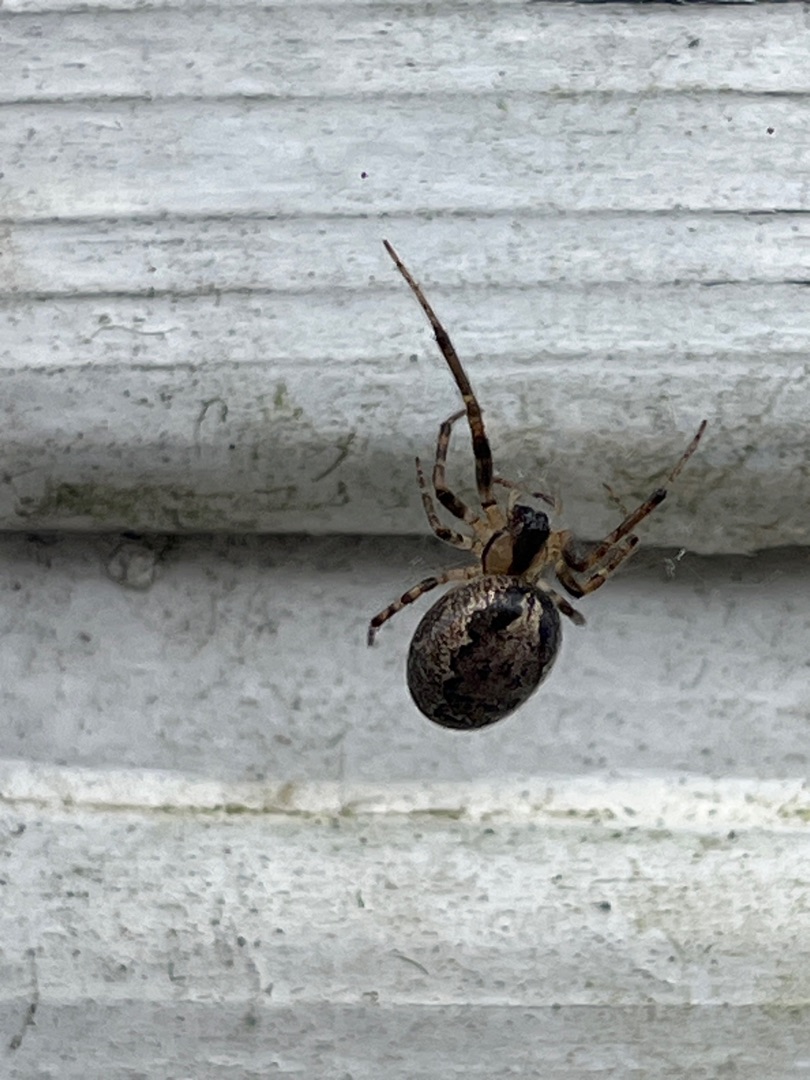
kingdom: Animalia
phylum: Arthropoda
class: Arachnida
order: Araneae
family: Araneidae
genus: Zygiella
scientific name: Zygiella x-notata
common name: Grå sektoredderkop
